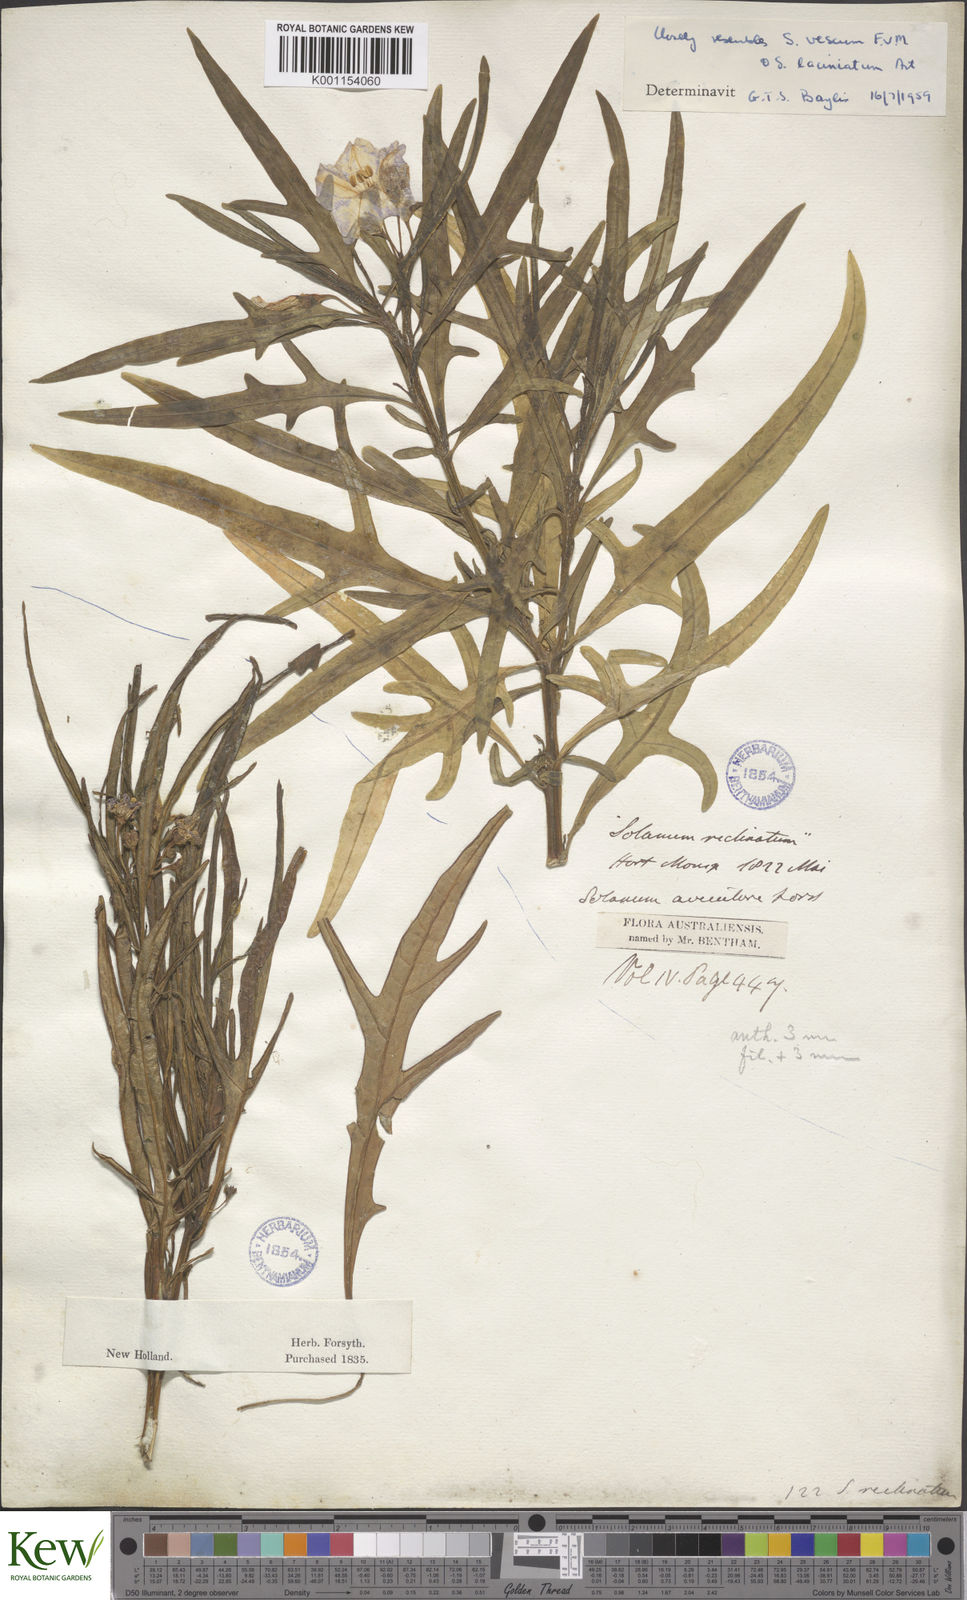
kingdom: Plantae
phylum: Tracheophyta
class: Magnoliopsida
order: Solanales
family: Solanaceae
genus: Solanum
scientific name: Solanum vescum
